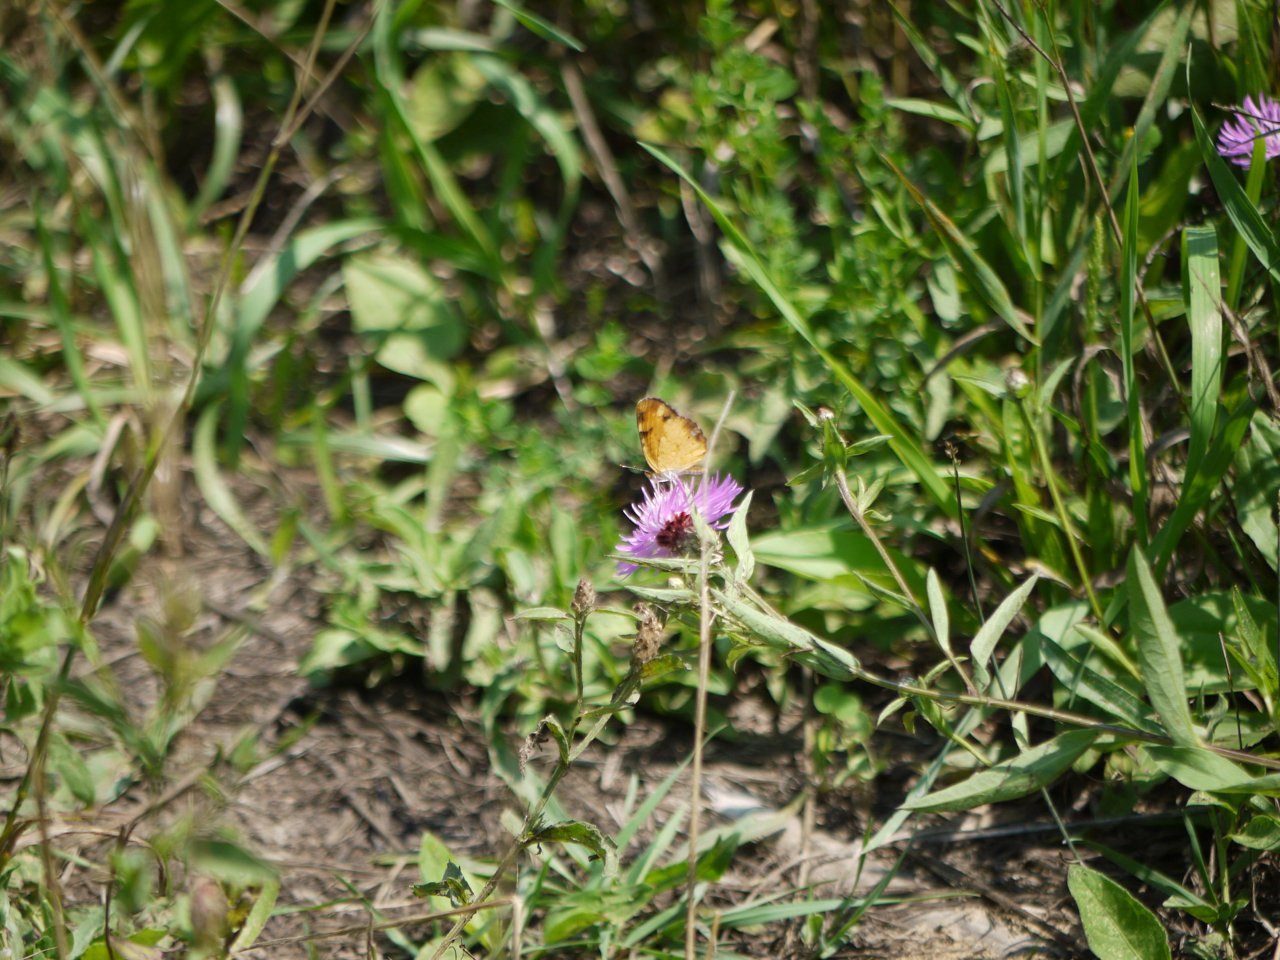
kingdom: Animalia
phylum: Arthropoda
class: Insecta
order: Lepidoptera
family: Nymphalidae
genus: Phyciodes
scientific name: Phyciodes tharos
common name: Northern Crescent
